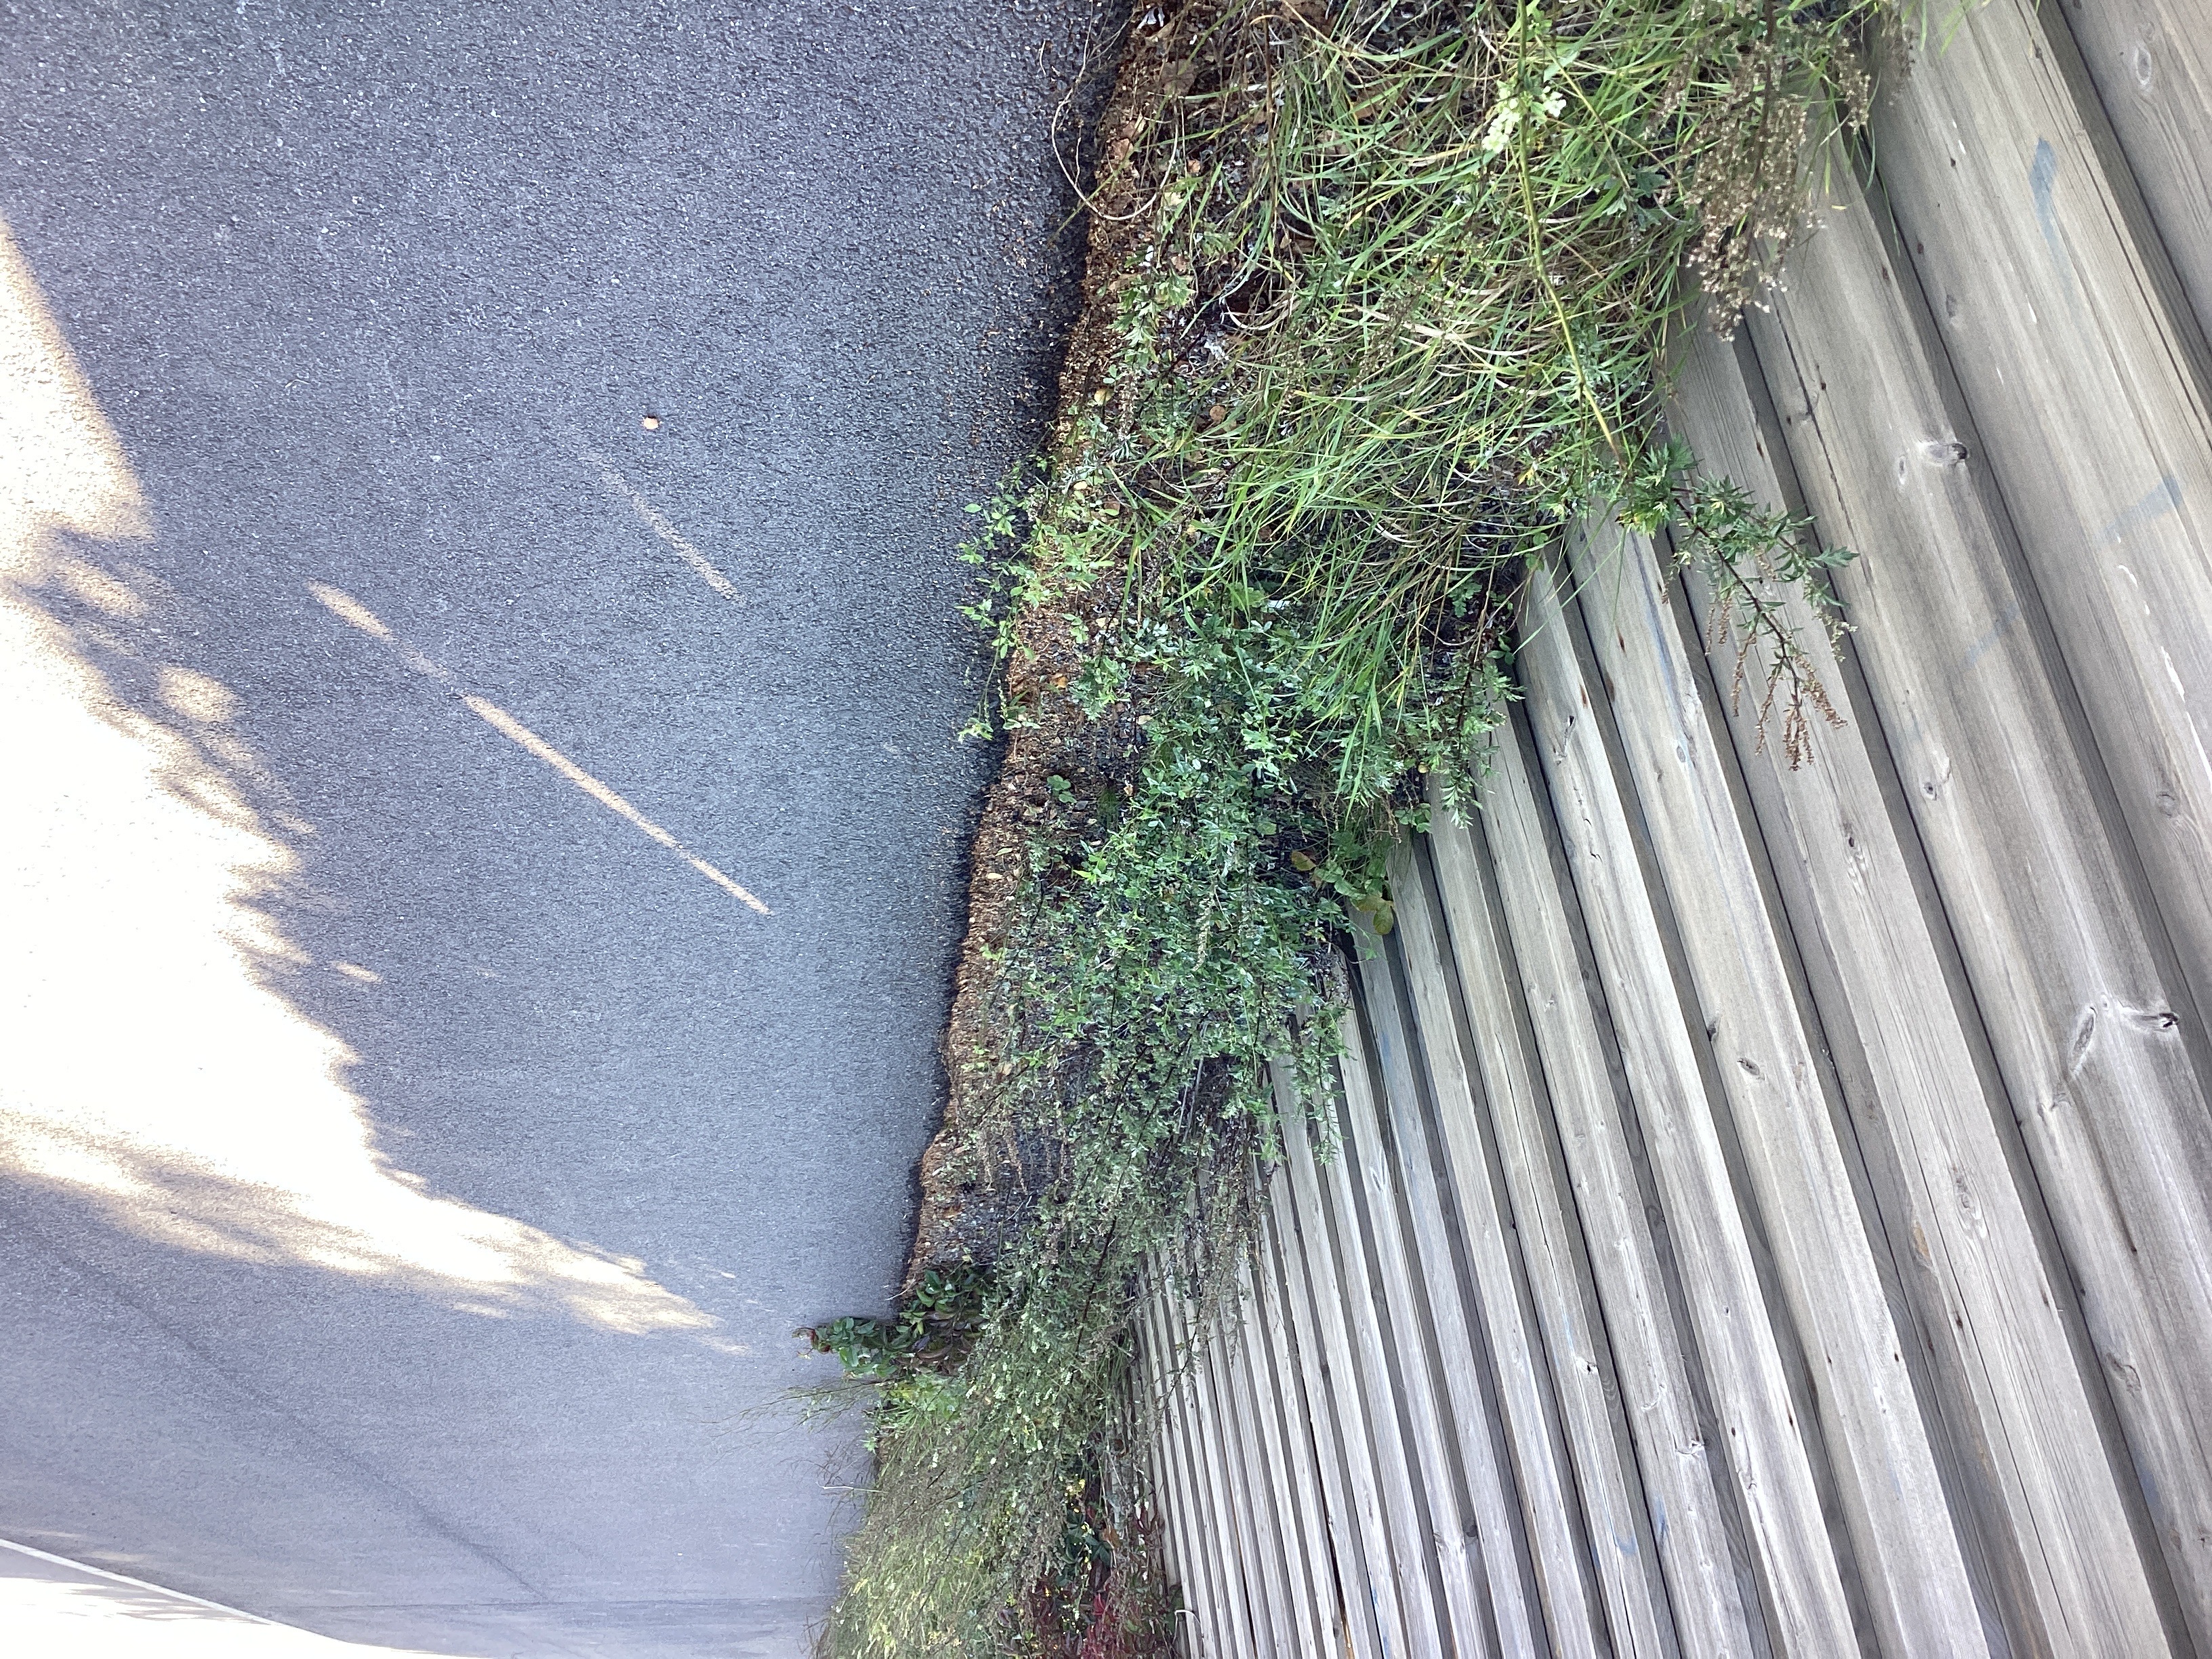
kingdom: Plantae
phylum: Tracheophyta
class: Magnoliopsida
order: Fabales
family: Fabaceae
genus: Melilotus
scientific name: Melilotus albus
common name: hvitsteinkløver
